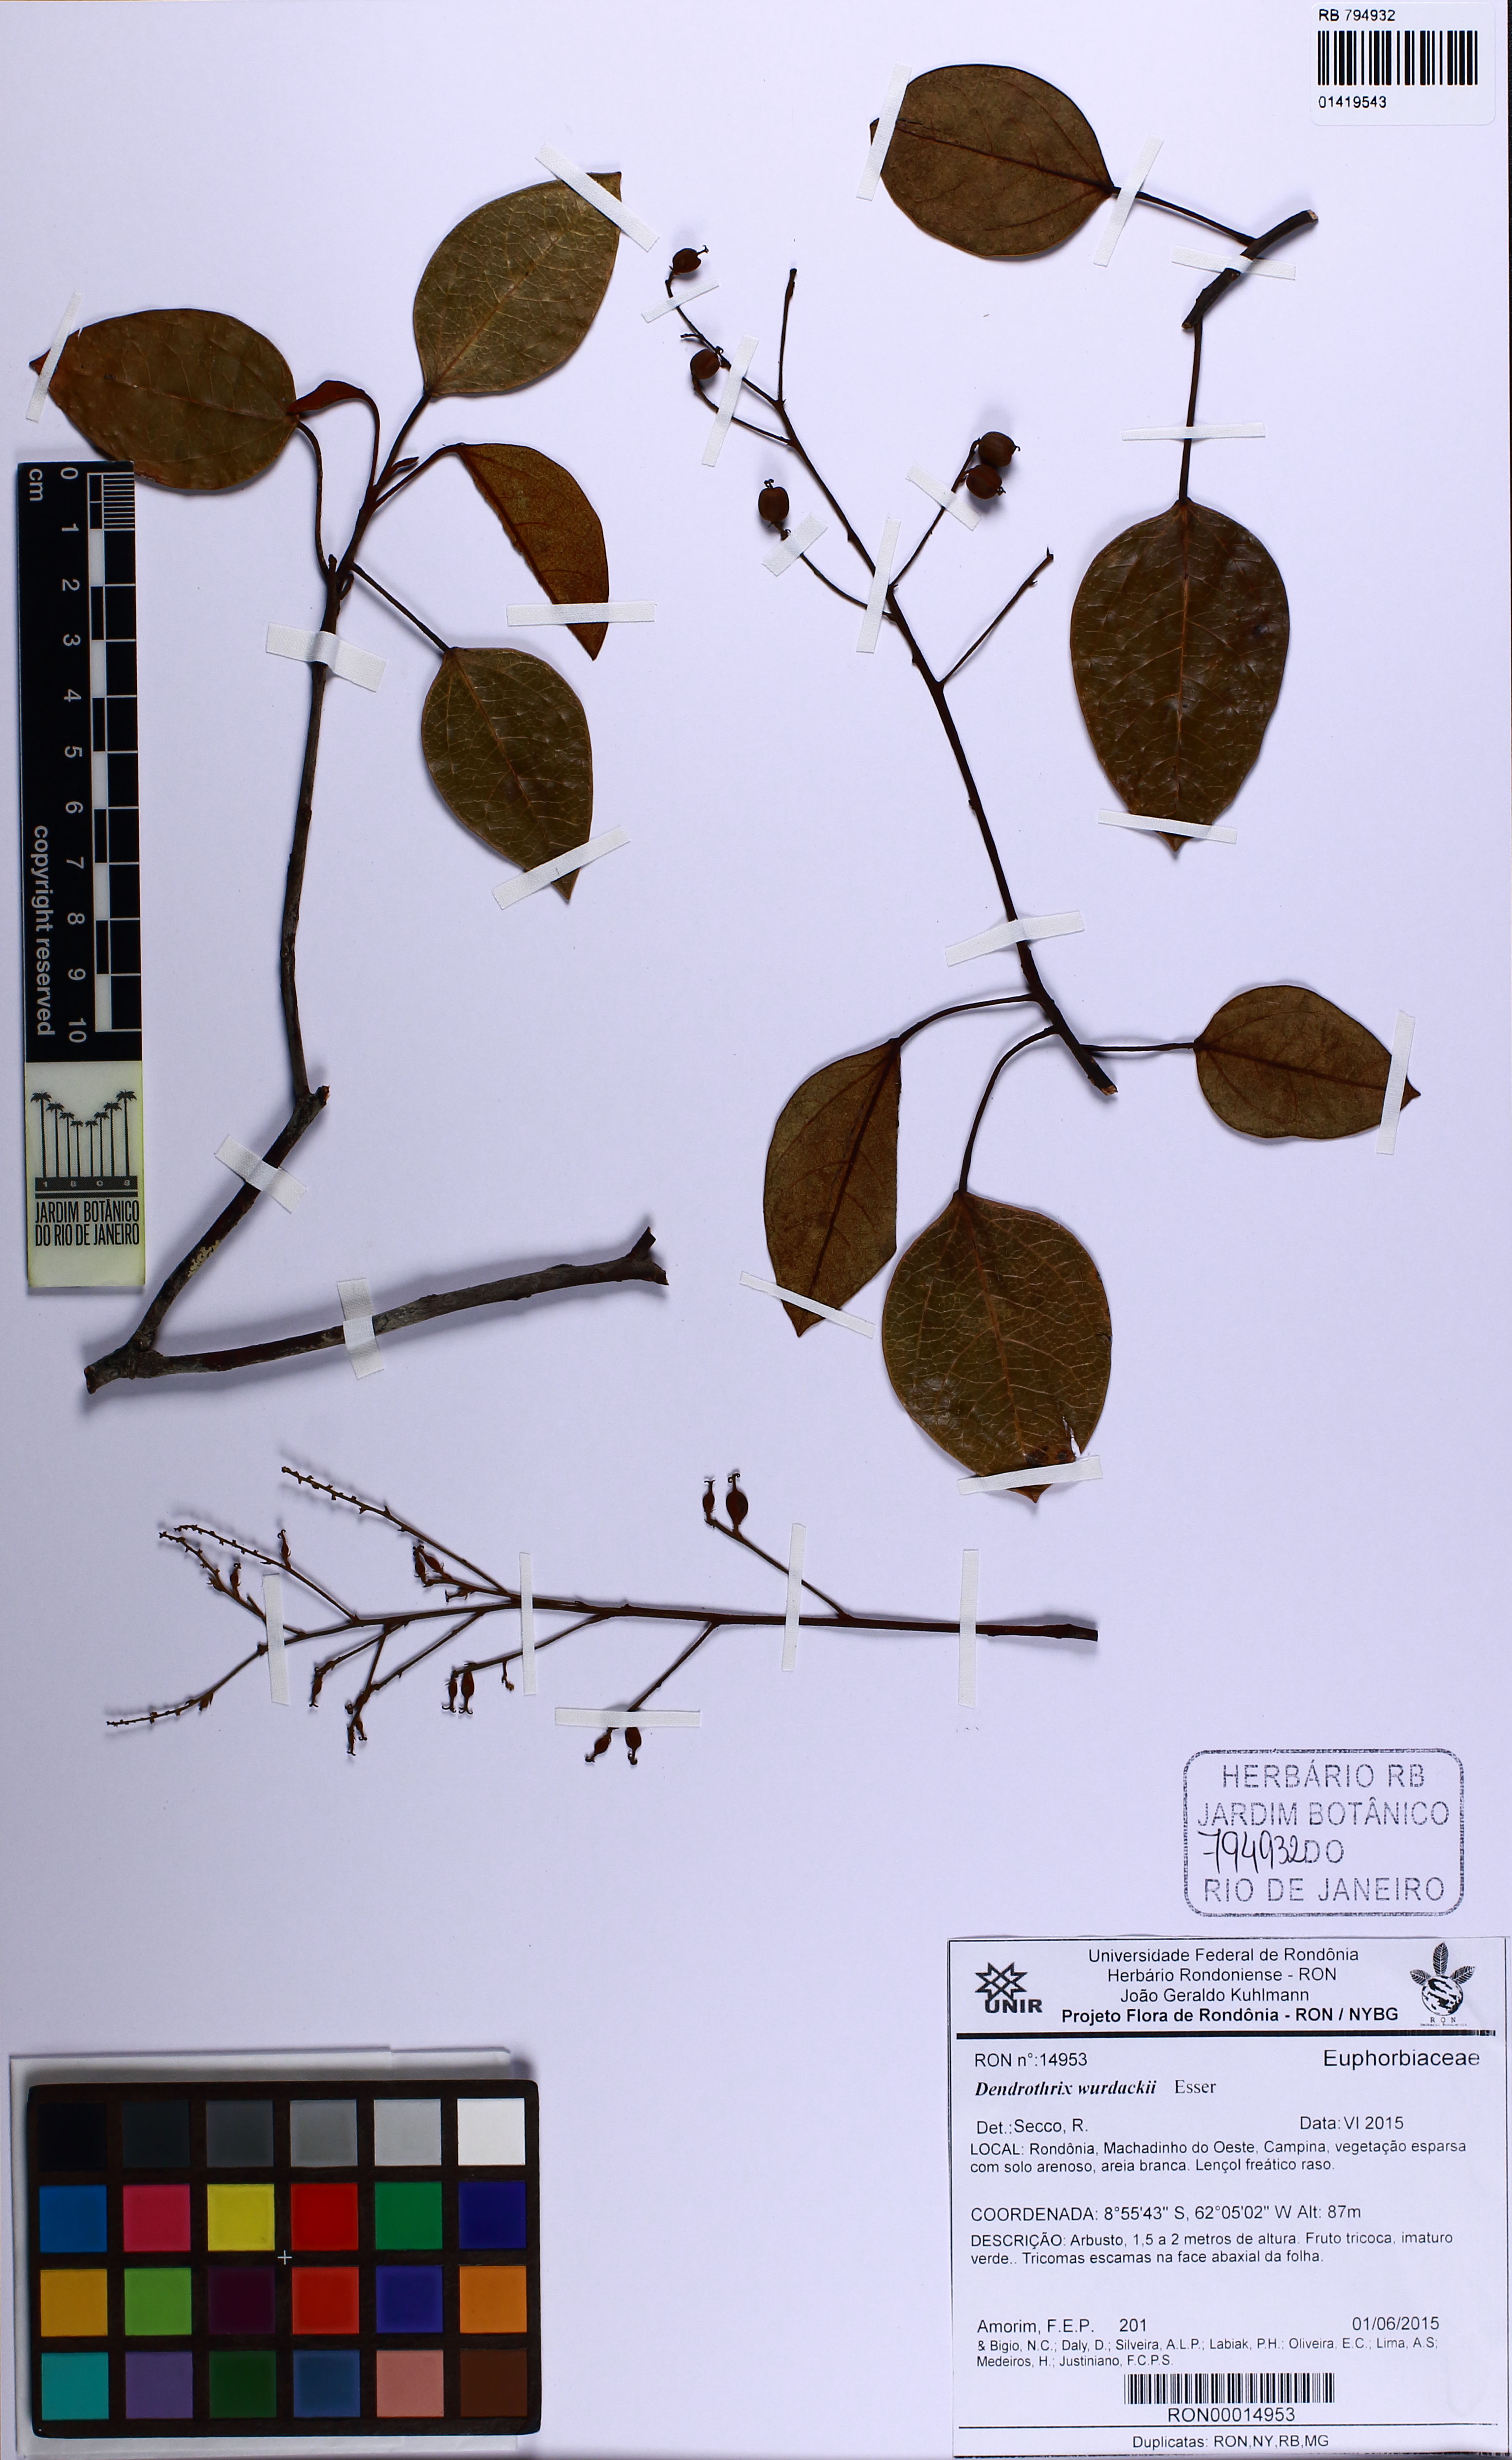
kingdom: Plantae
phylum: Tracheophyta
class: Magnoliopsida
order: Malpighiales
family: Euphorbiaceae
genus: Dendrothrix
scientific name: Dendrothrix wurdackii
